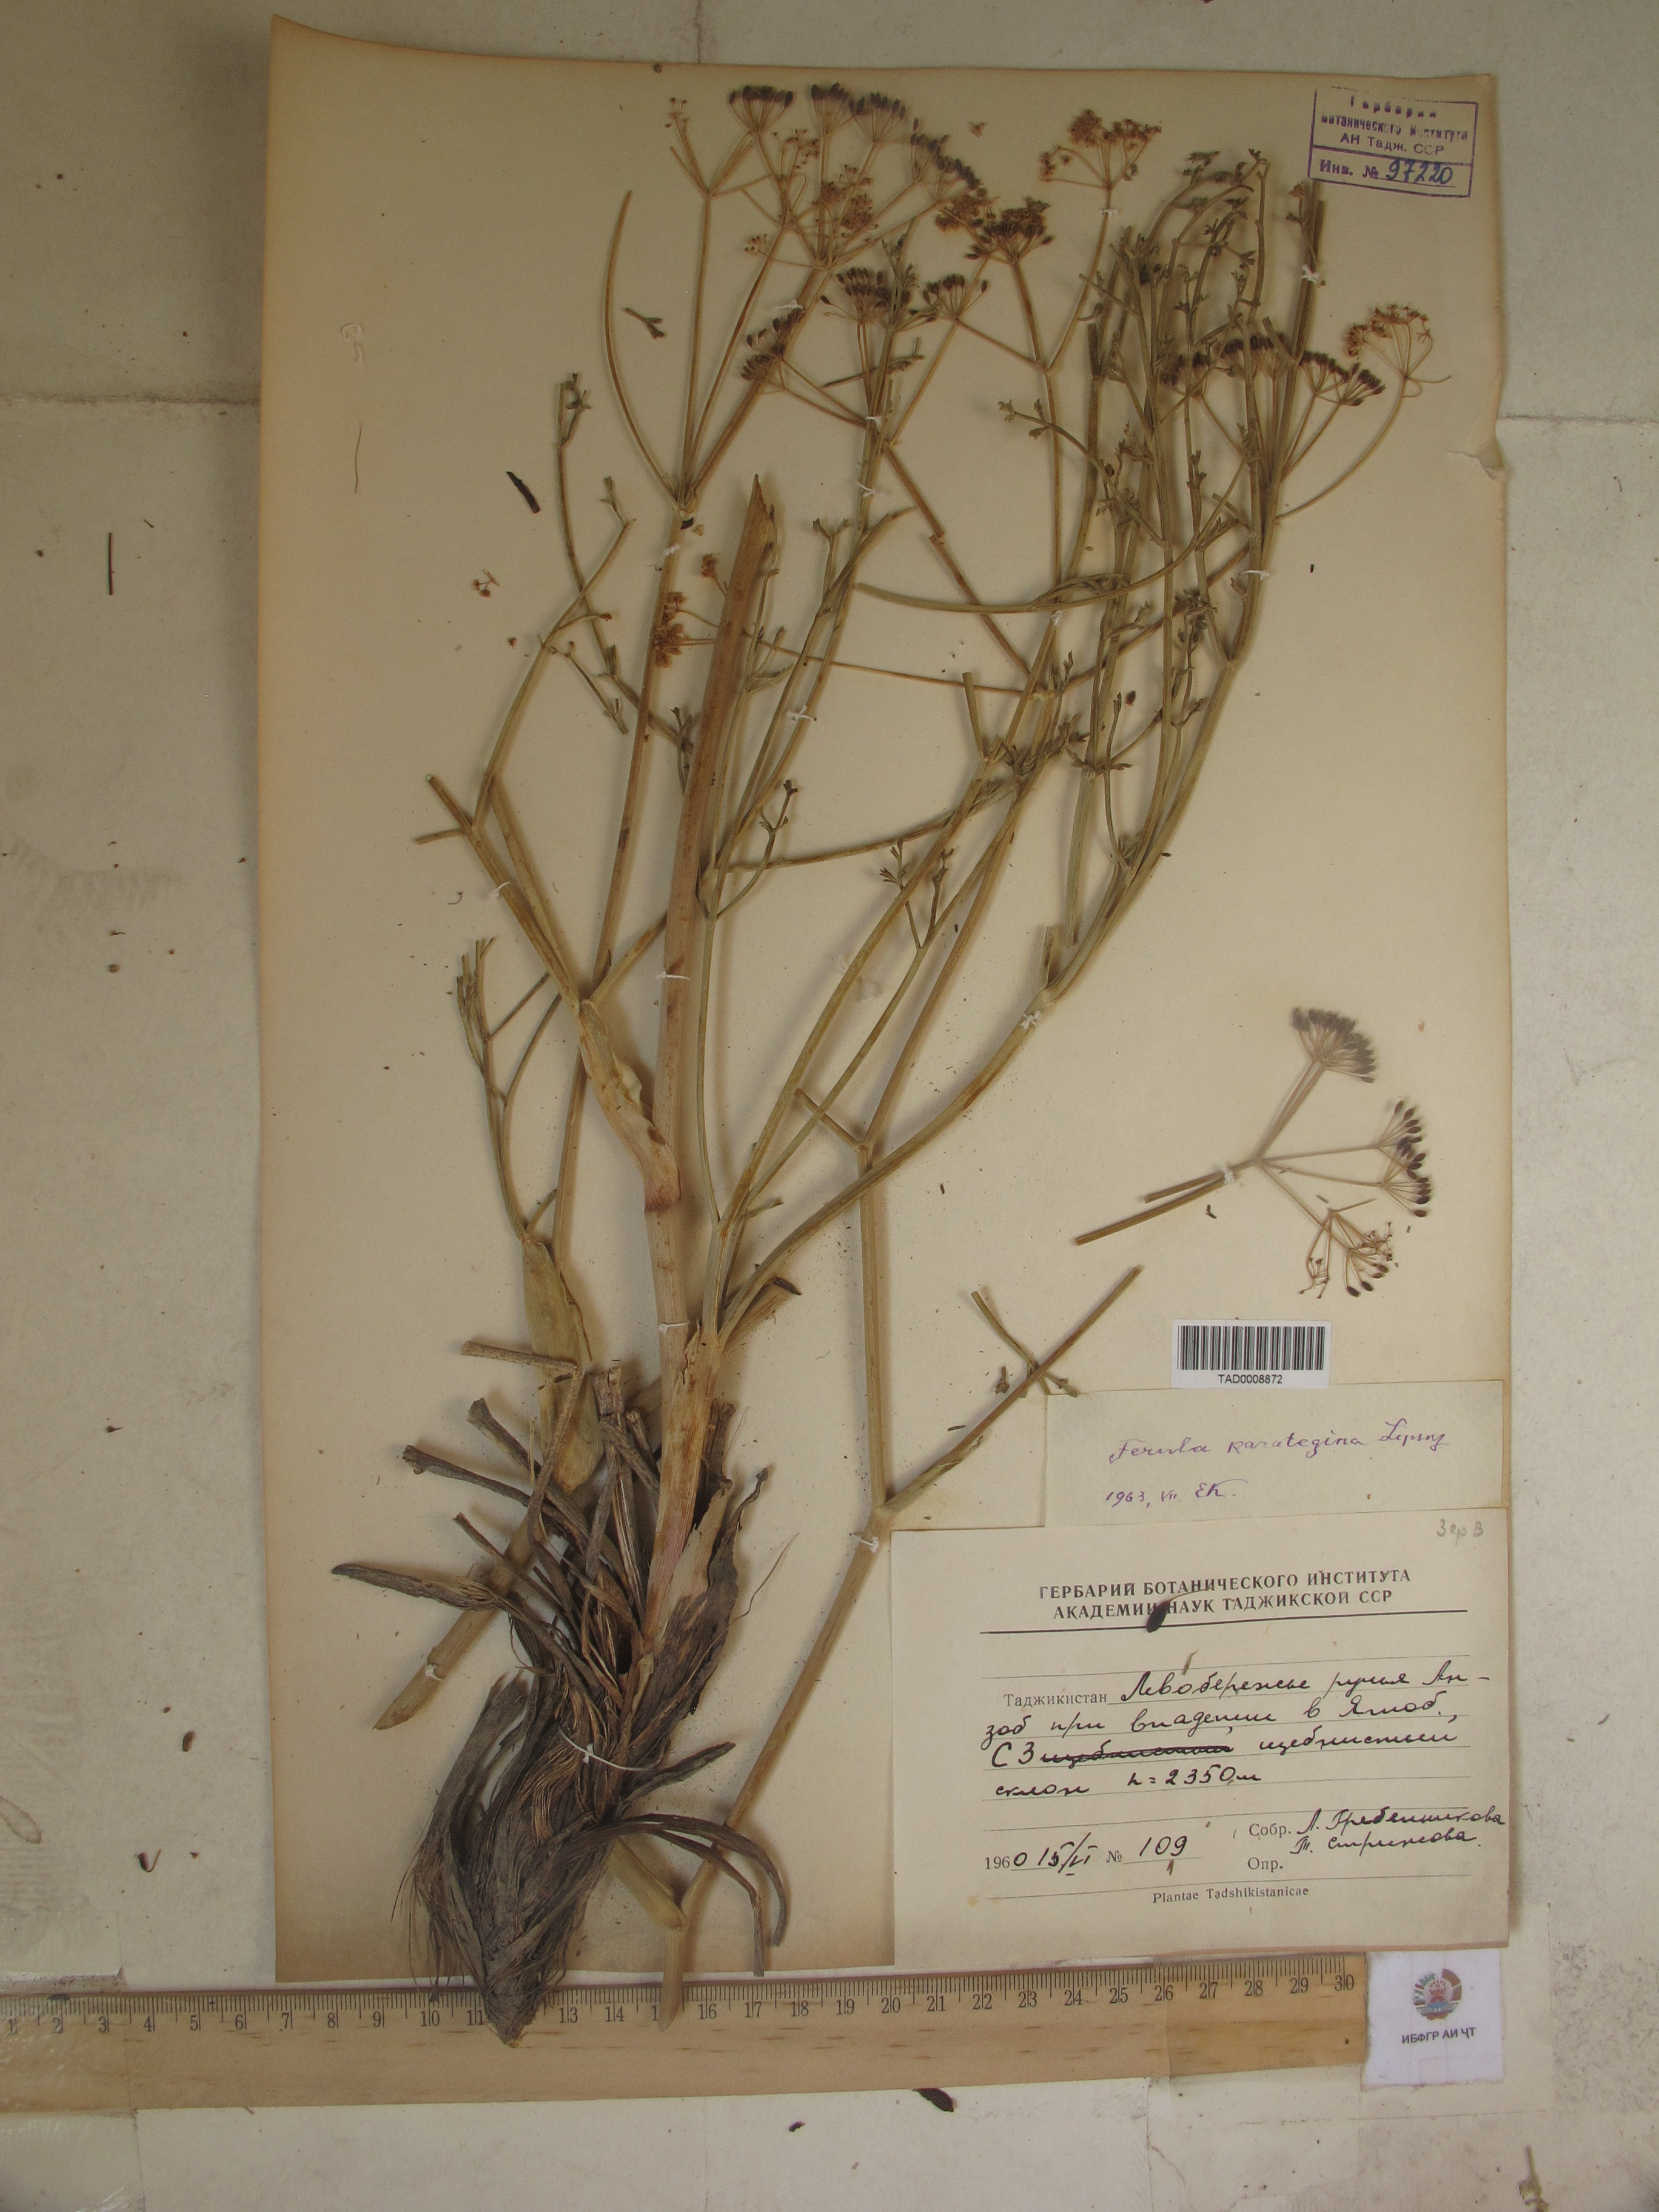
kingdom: Plantae
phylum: Tracheophyta
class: Magnoliopsida
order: Apiales
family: Apiaceae
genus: Ferula
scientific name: Ferula karategina
